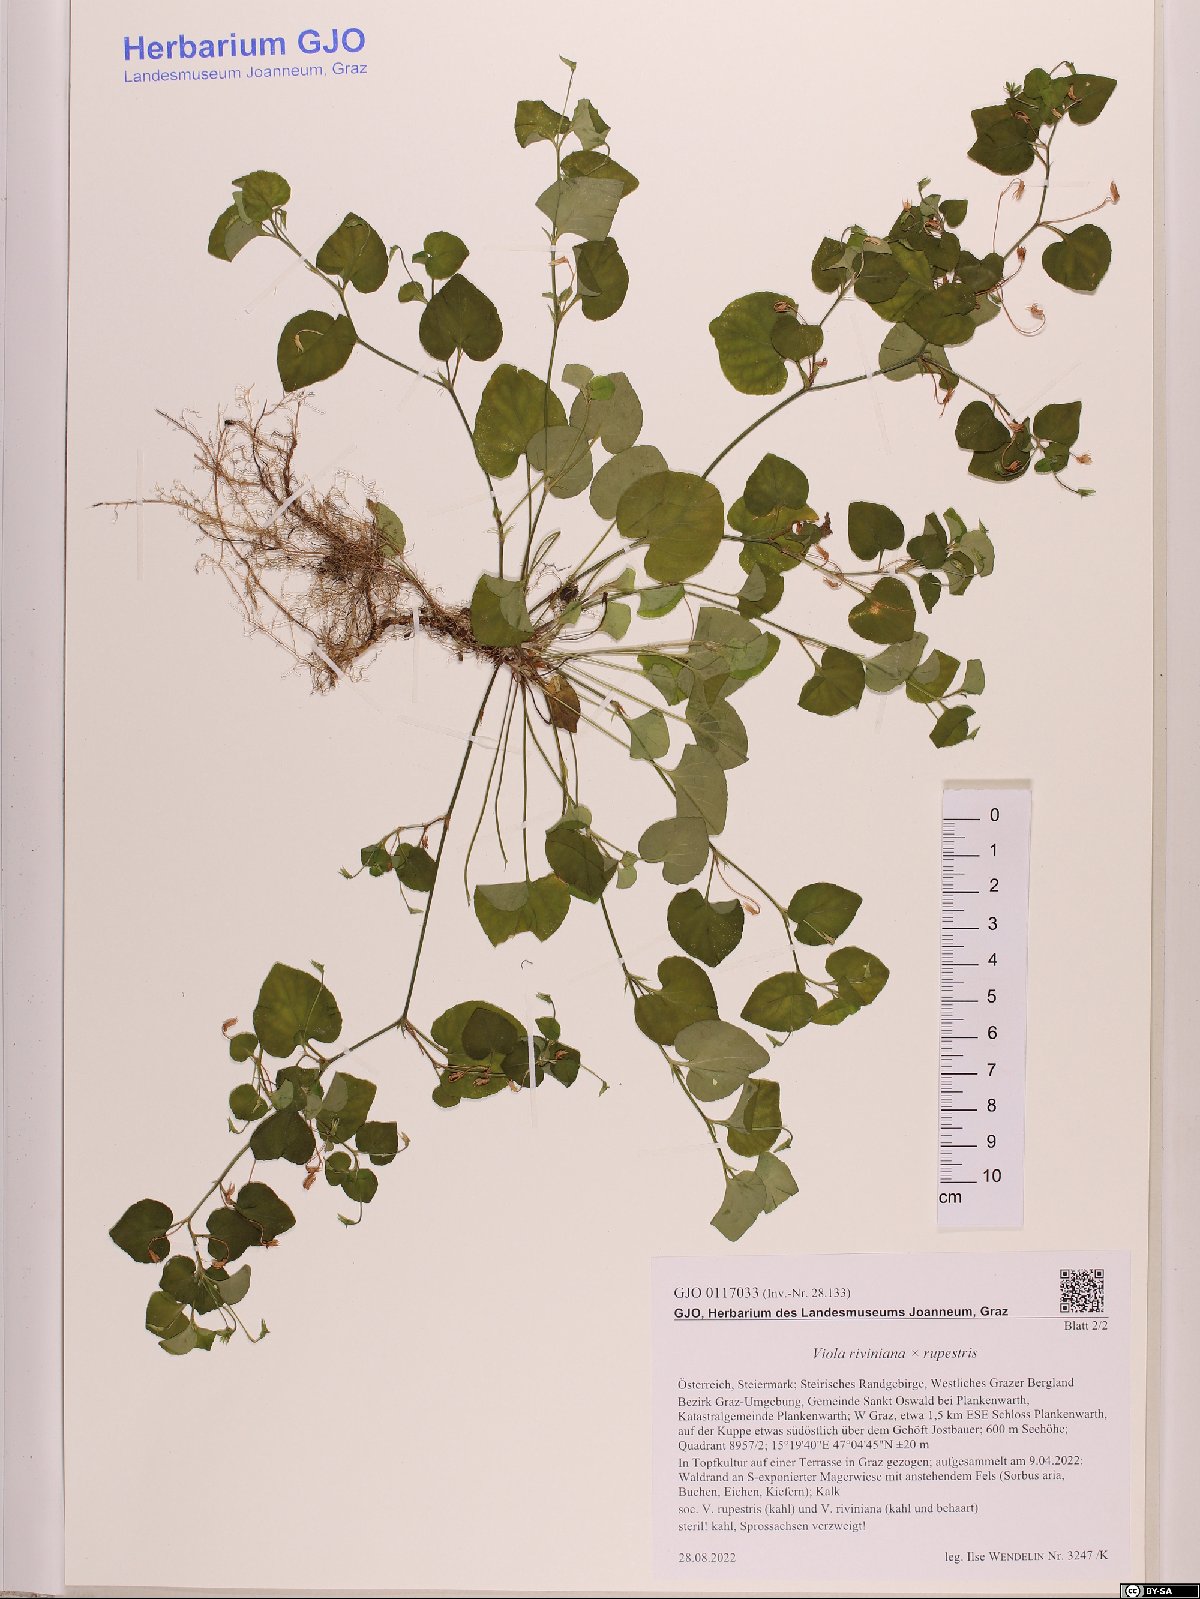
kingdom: Plantae
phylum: Tracheophyta
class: Magnoliopsida
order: Malpighiales
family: Violaceae
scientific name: Violaceae
